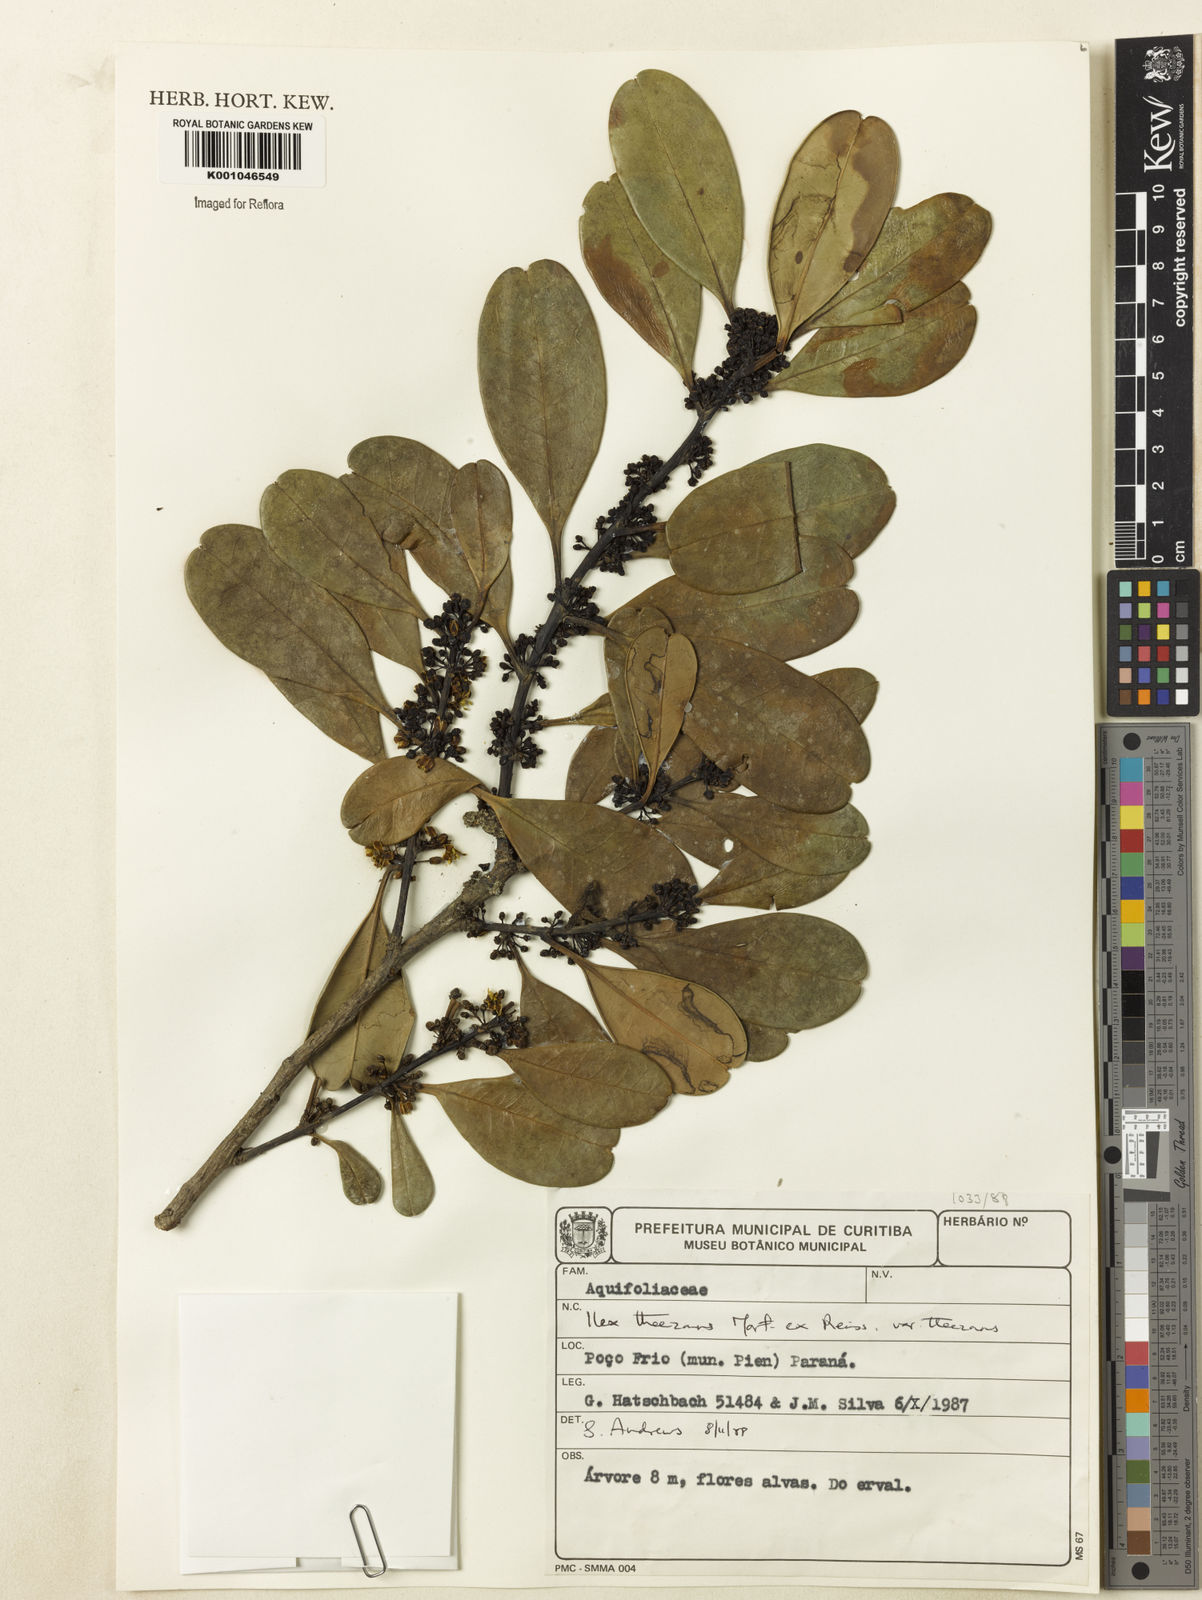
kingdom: Plantae
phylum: Tracheophyta
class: Magnoliopsida
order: Aquifoliales
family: Aquifoliaceae
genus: Ilex
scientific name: Ilex theezans
